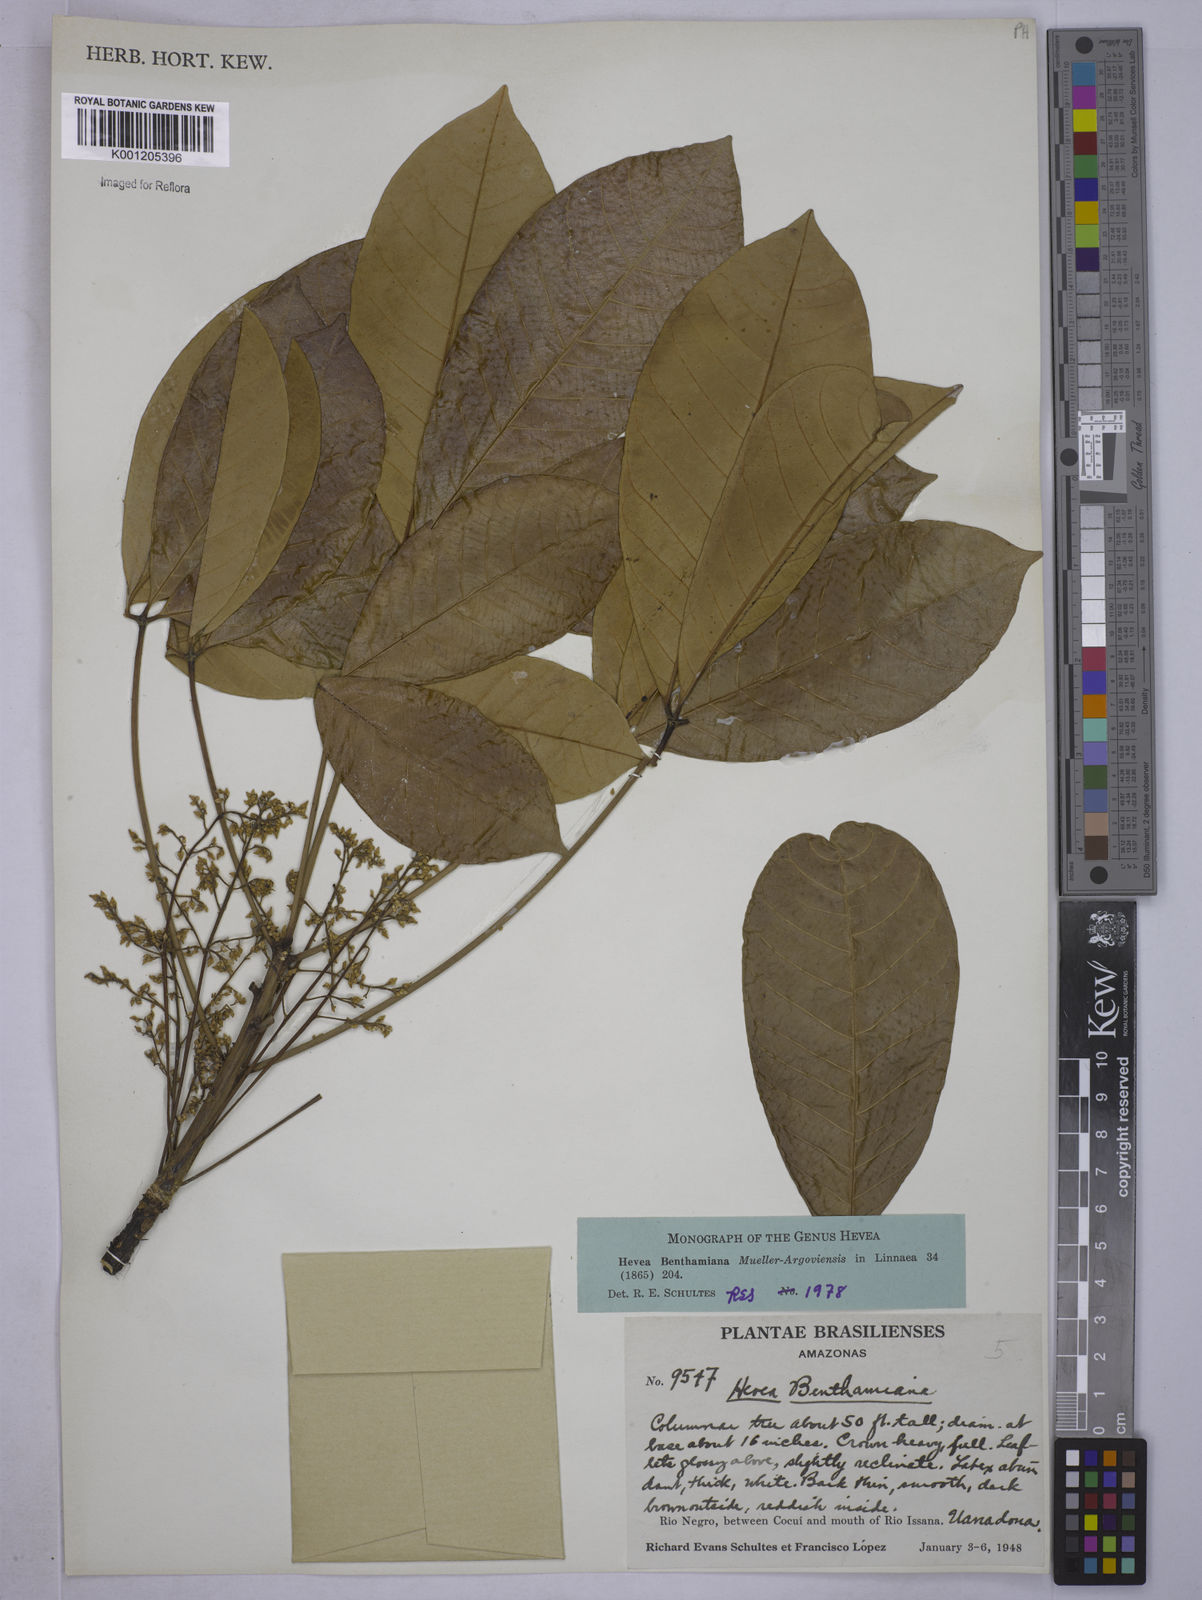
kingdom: Plantae
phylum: Tracheophyta
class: Magnoliopsida
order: Malpighiales
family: Euphorbiaceae
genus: Hevea
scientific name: Hevea
